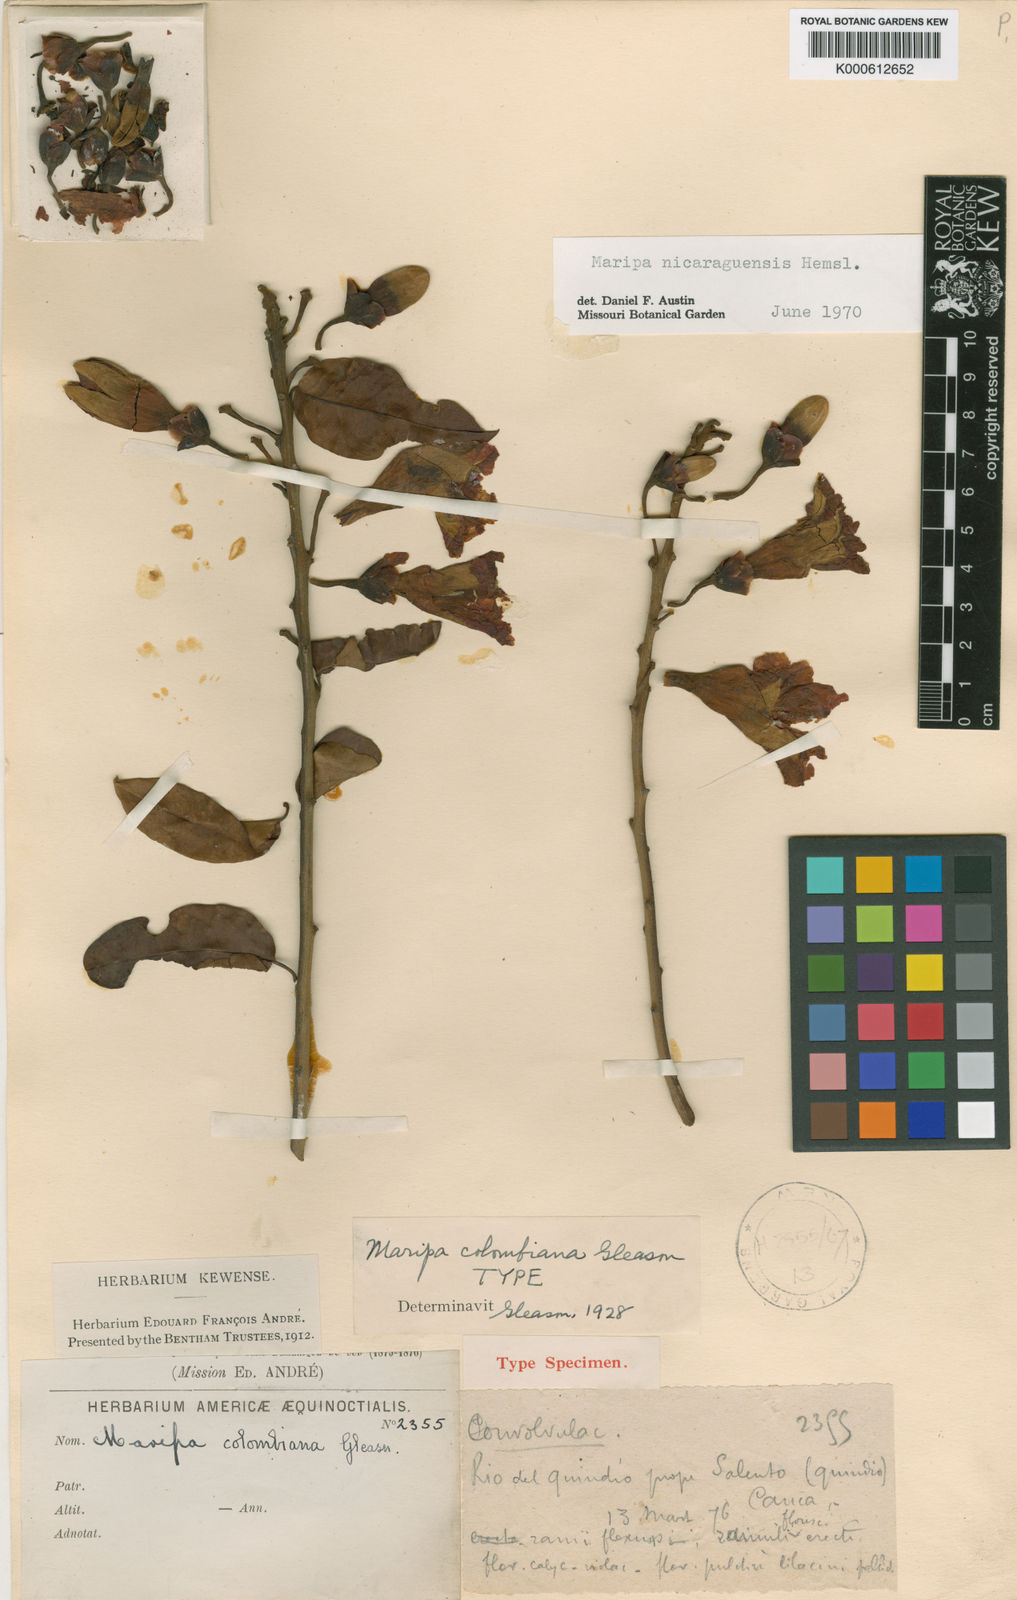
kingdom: Plantae
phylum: Tracheophyta
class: Magnoliopsida
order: Solanales
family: Convolvulaceae
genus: Maripa
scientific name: Maripa nicaraguensis
